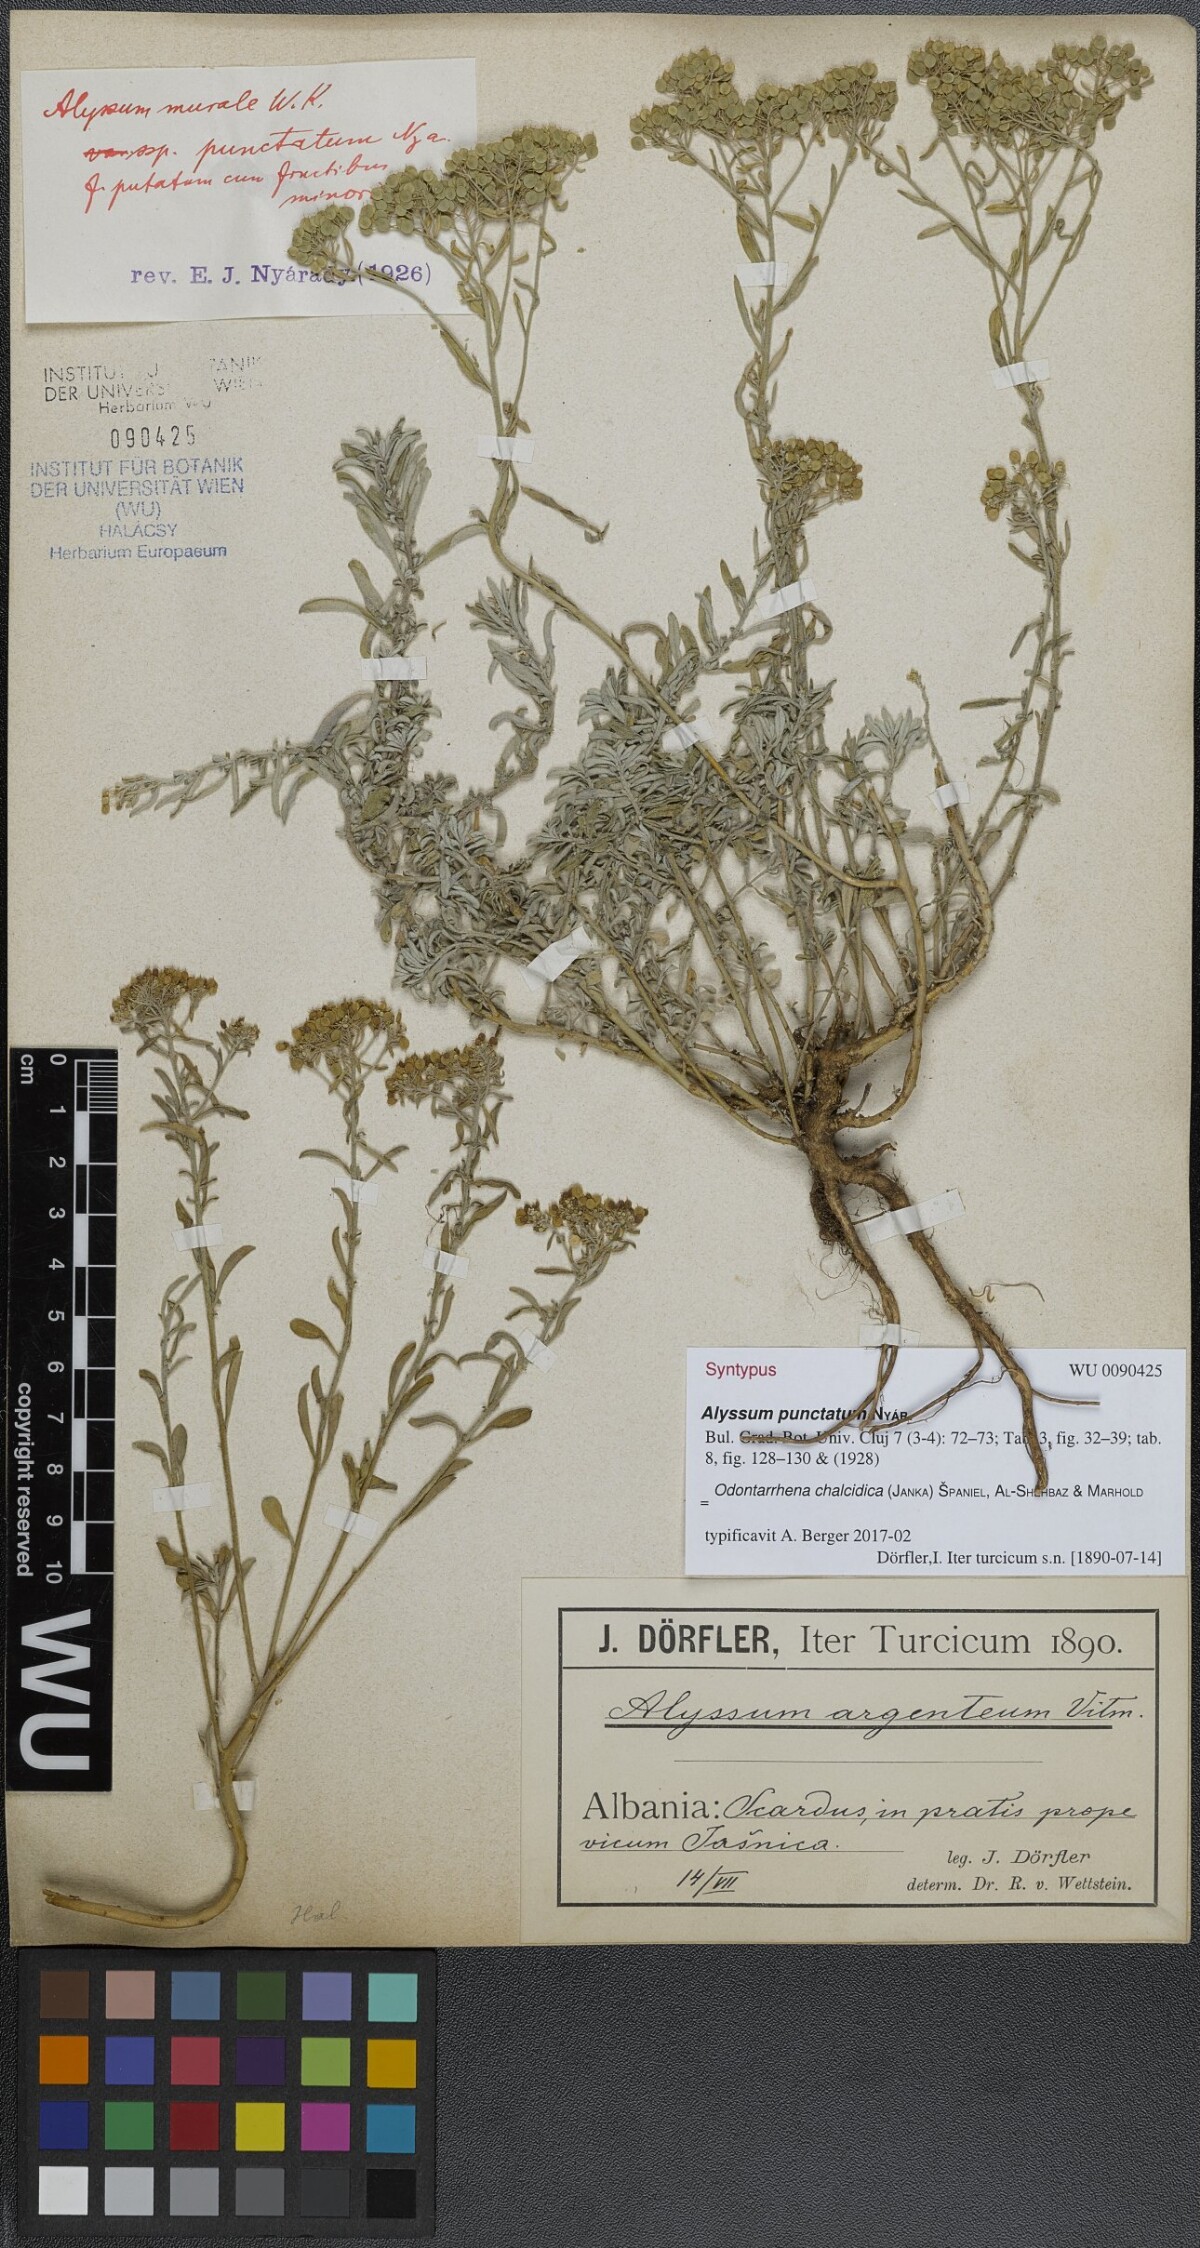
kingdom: Plantae
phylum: Tracheophyta
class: Magnoliopsida
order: Brassicales
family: Brassicaceae
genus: Odontarrhena
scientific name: Odontarrhena muralis
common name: Rock alyssum
